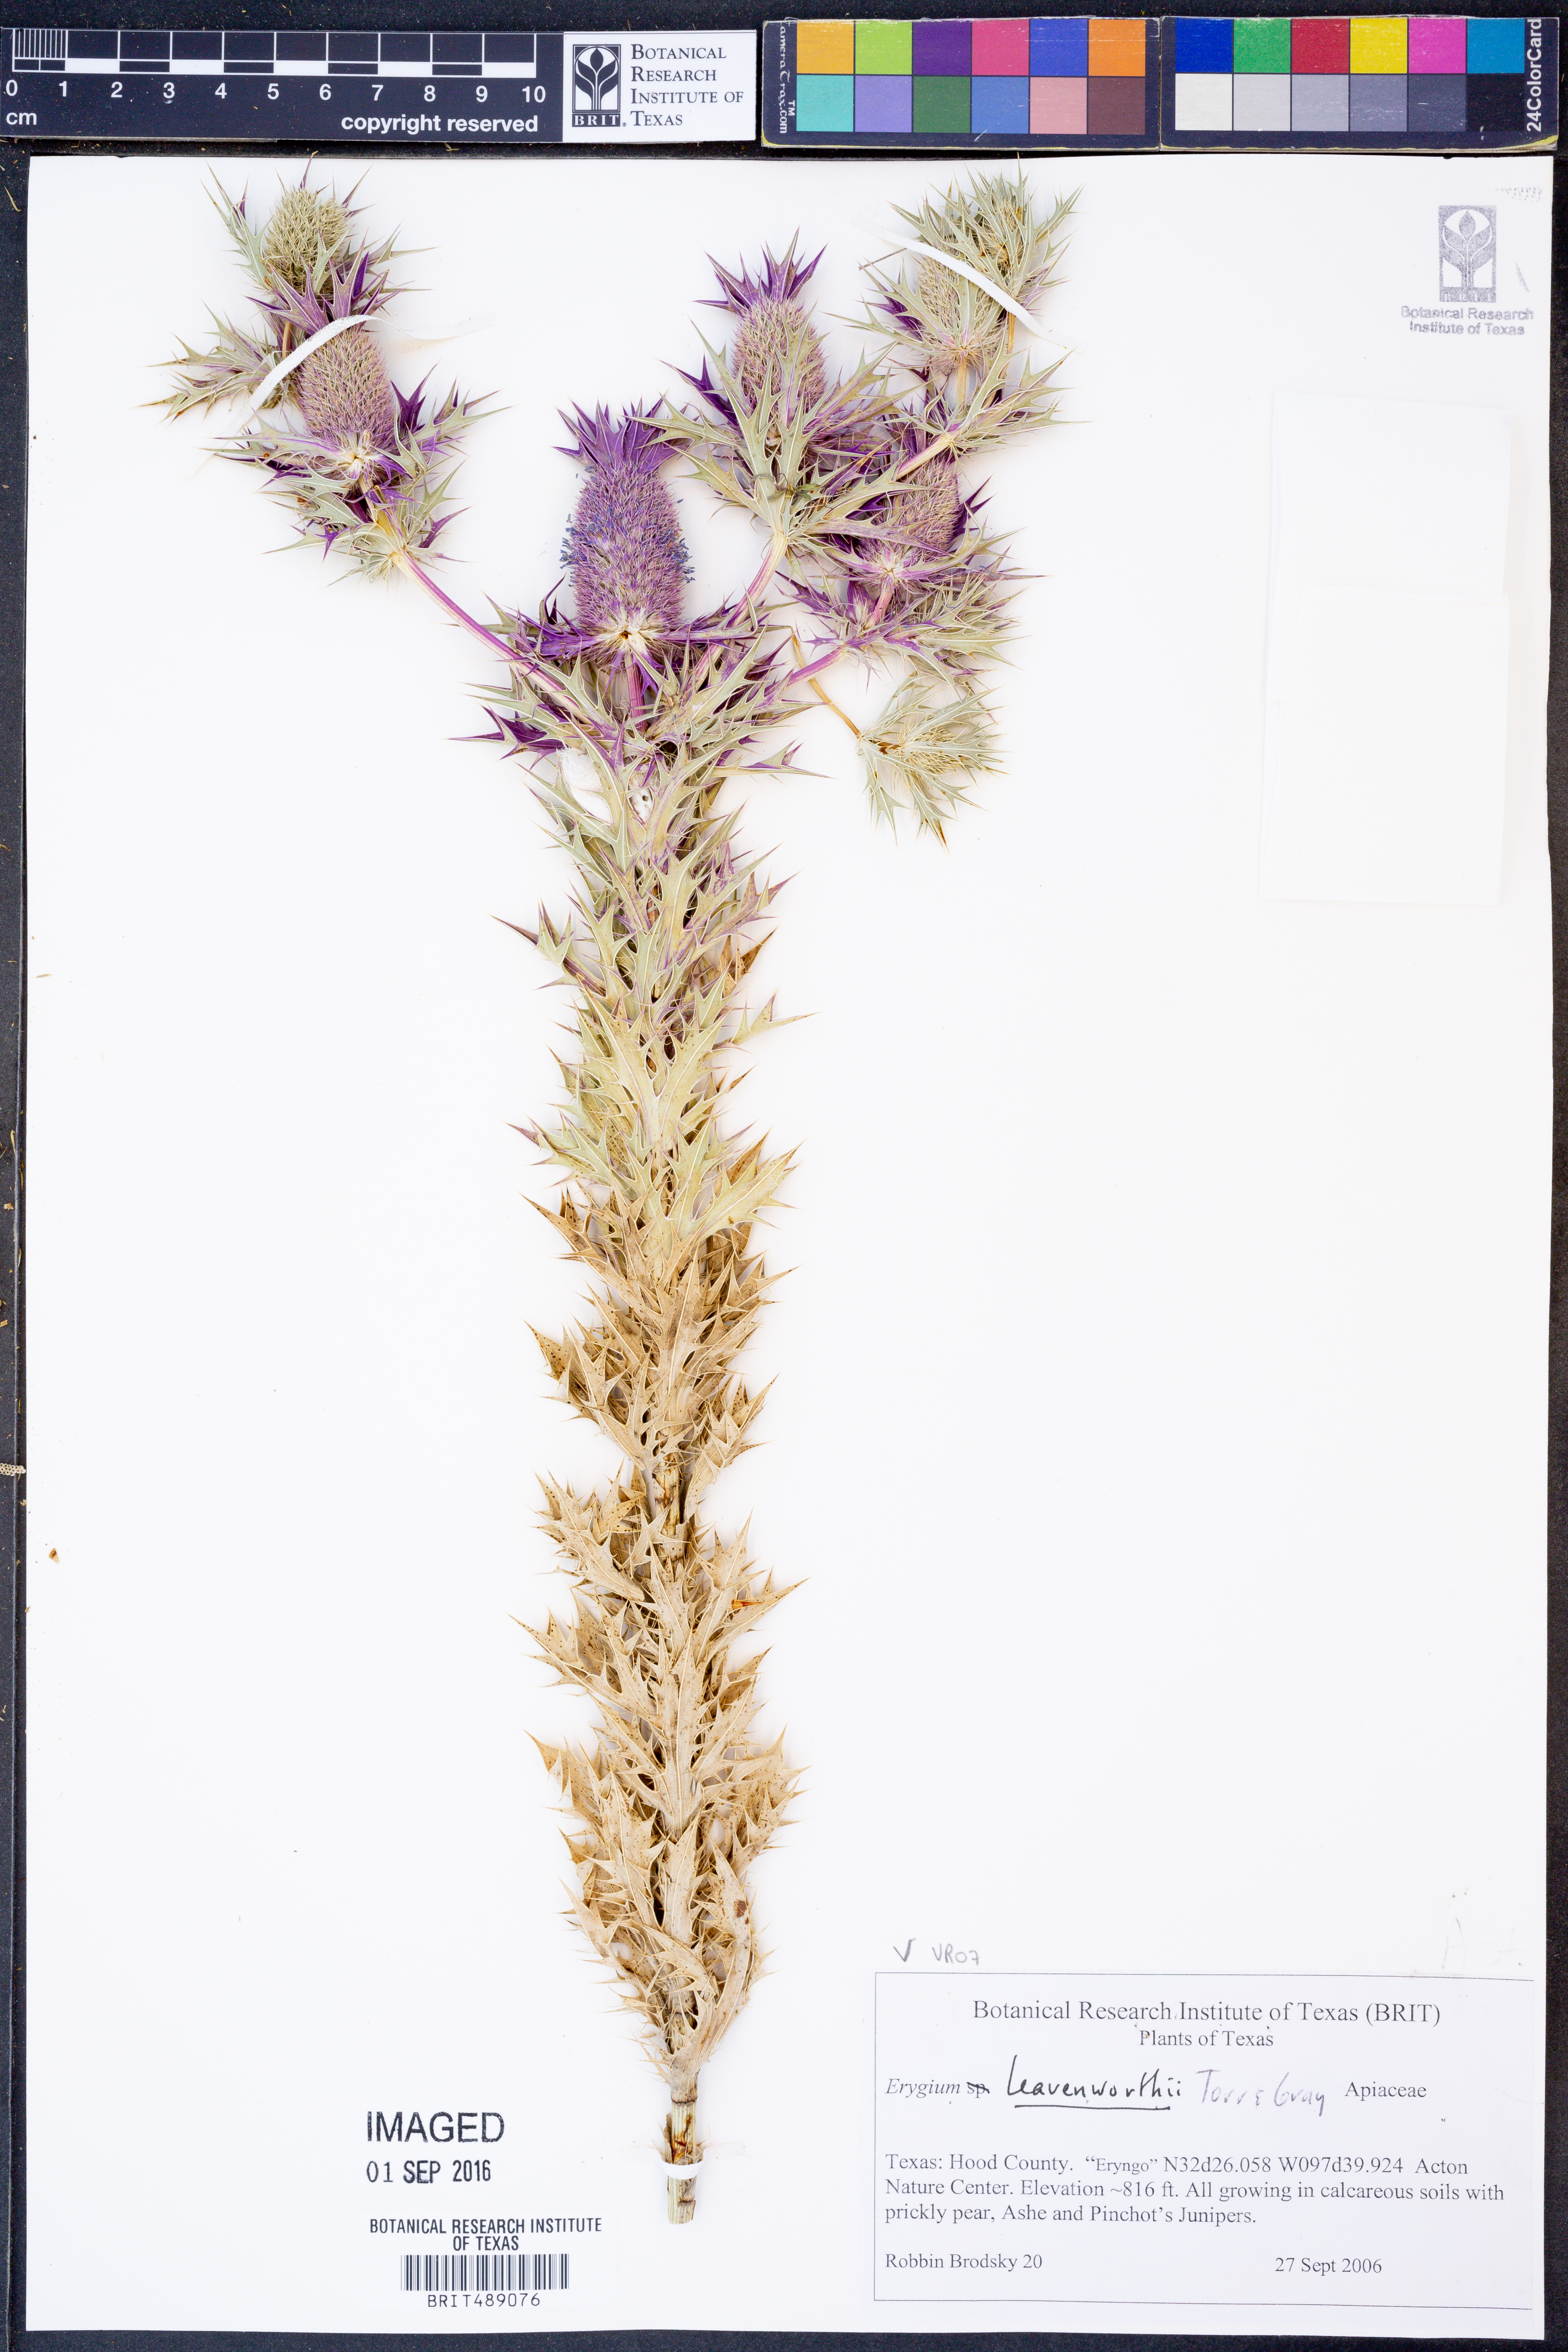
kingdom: Plantae
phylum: Tracheophyta
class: Magnoliopsida
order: Apiales
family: Apiaceae
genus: Eryngium
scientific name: Eryngium leavenworthii
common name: Leavenworth's eryngo
